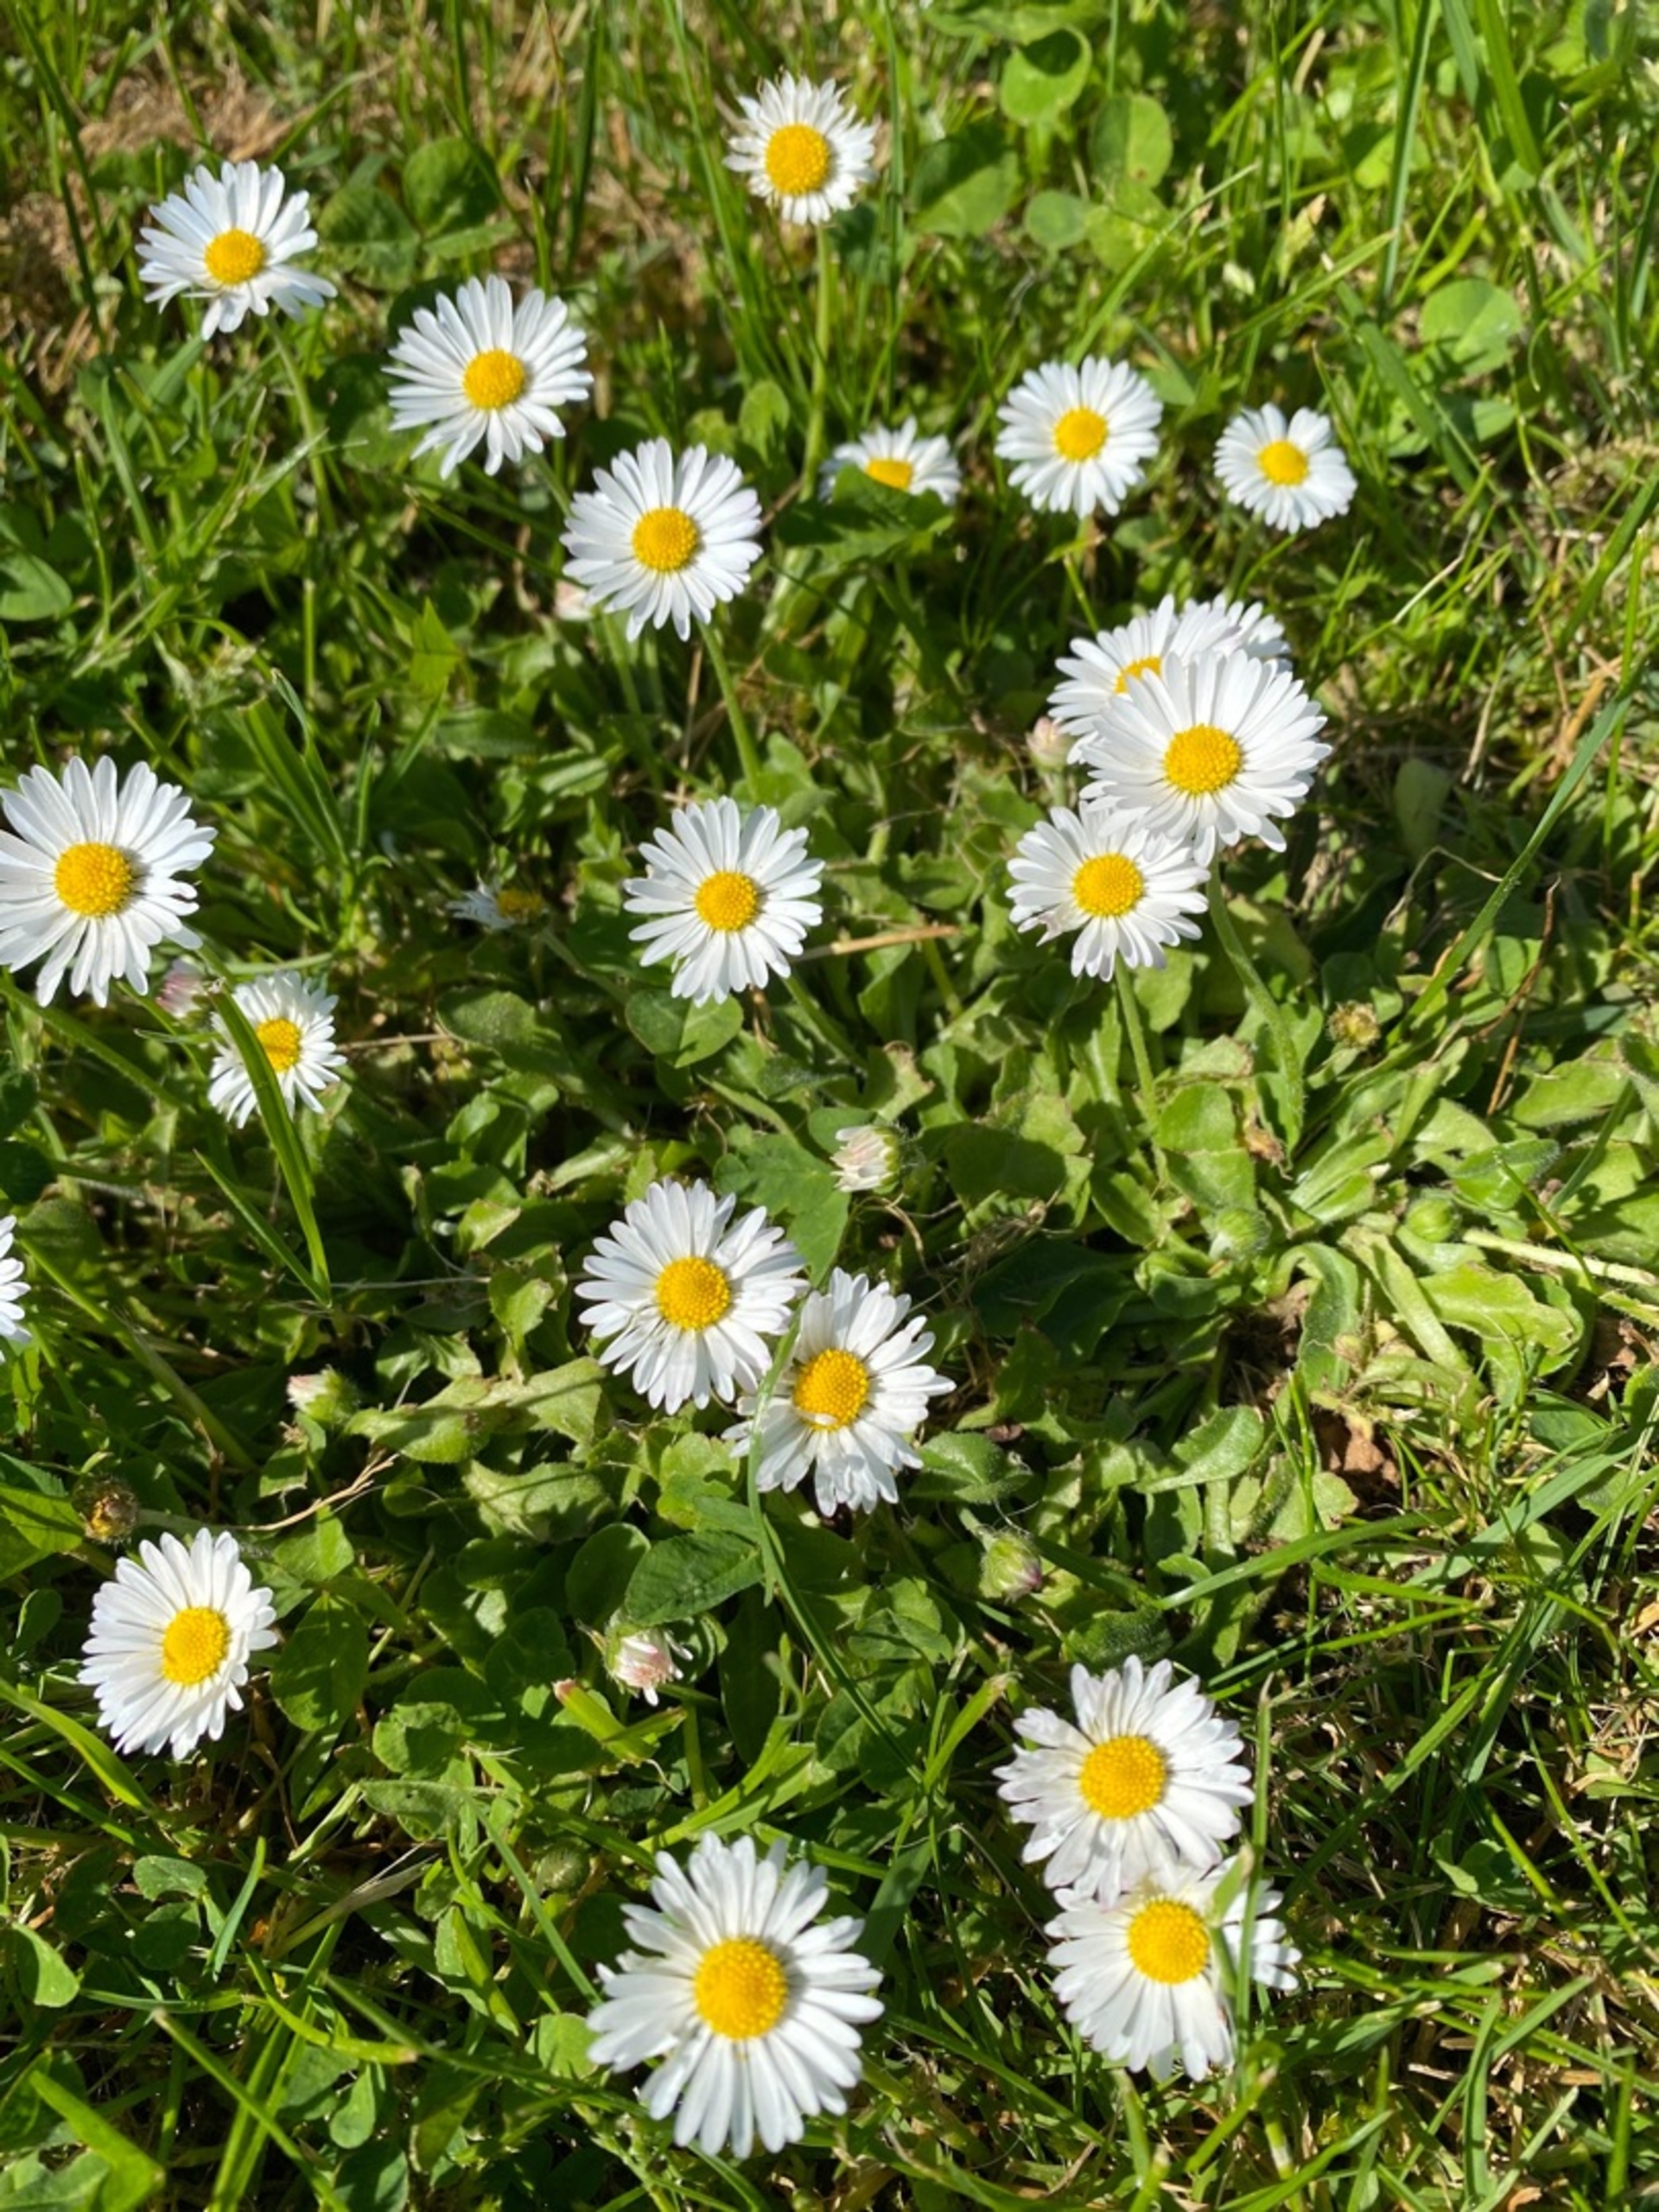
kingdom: Plantae
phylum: Tracheophyta
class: Magnoliopsida
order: Asterales
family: Asteraceae
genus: Bellis
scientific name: Bellis perennis
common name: Tusindfryd
